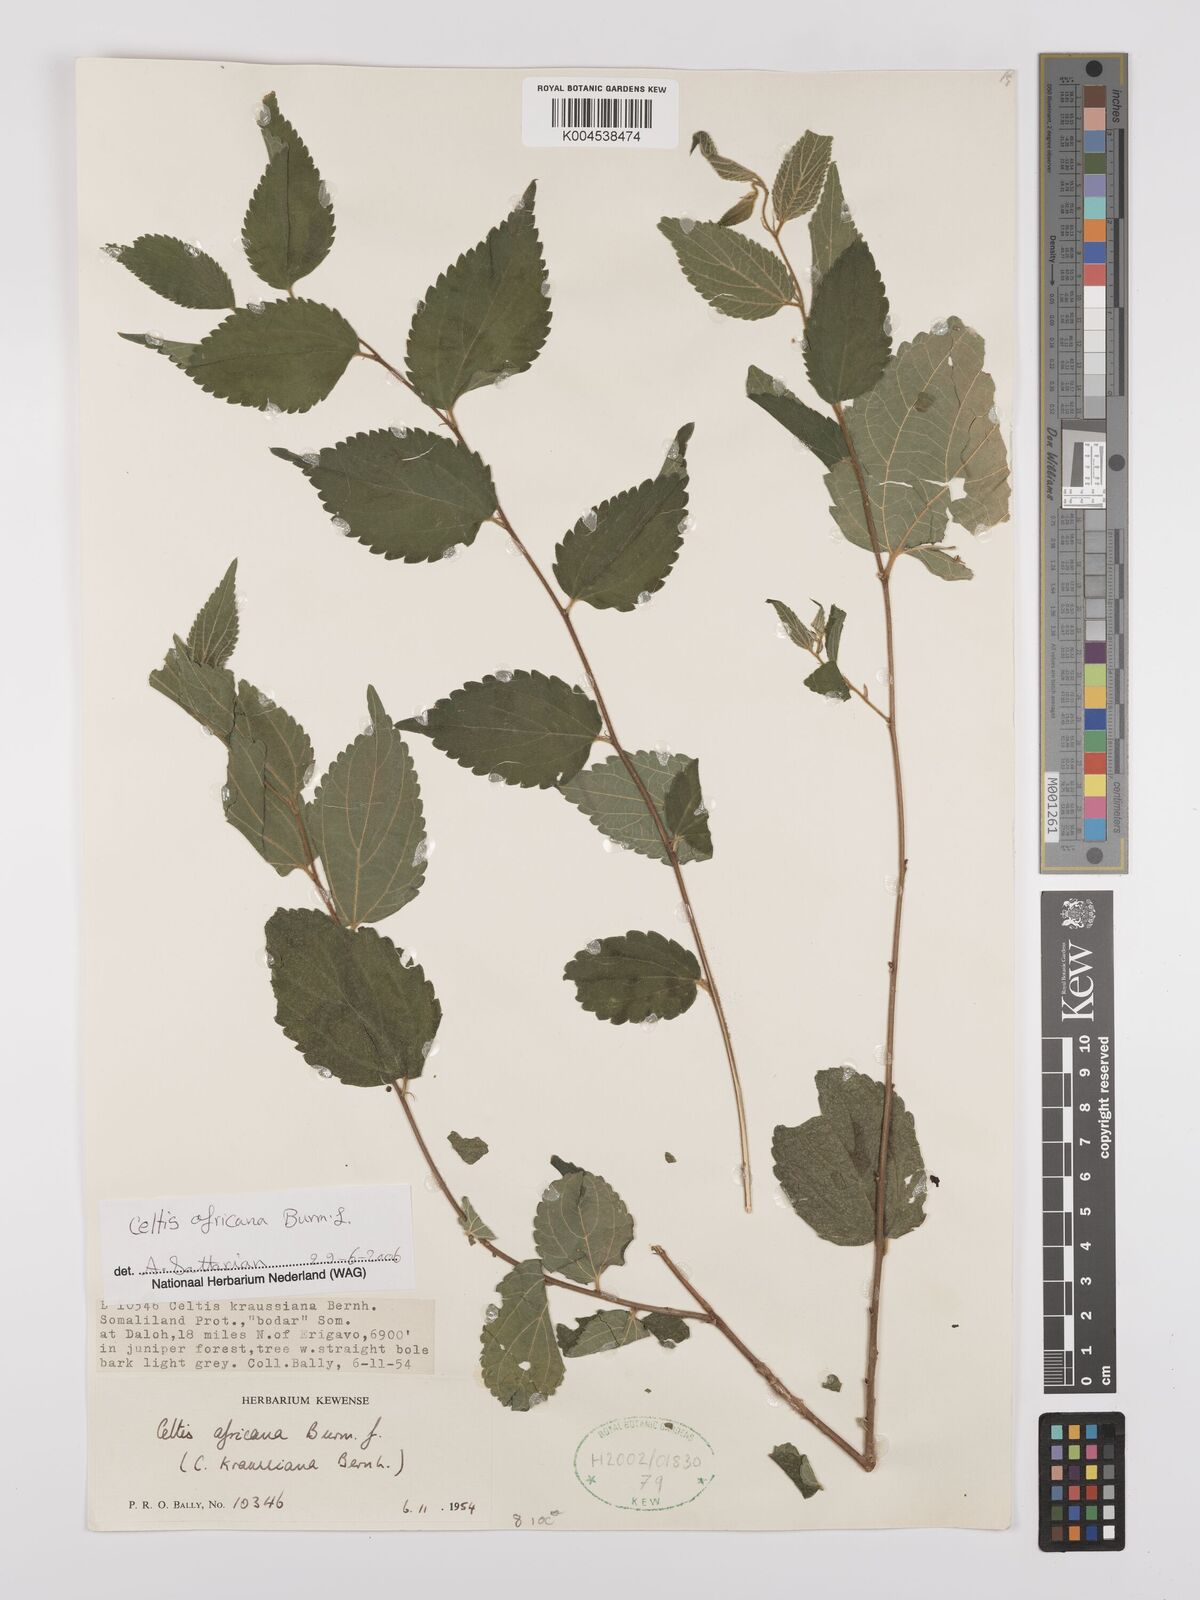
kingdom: Plantae
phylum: Tracheophyta
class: Magnoliopsida
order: Rosales
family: Cannabaceae
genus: Celtis
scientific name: Celtis africana
